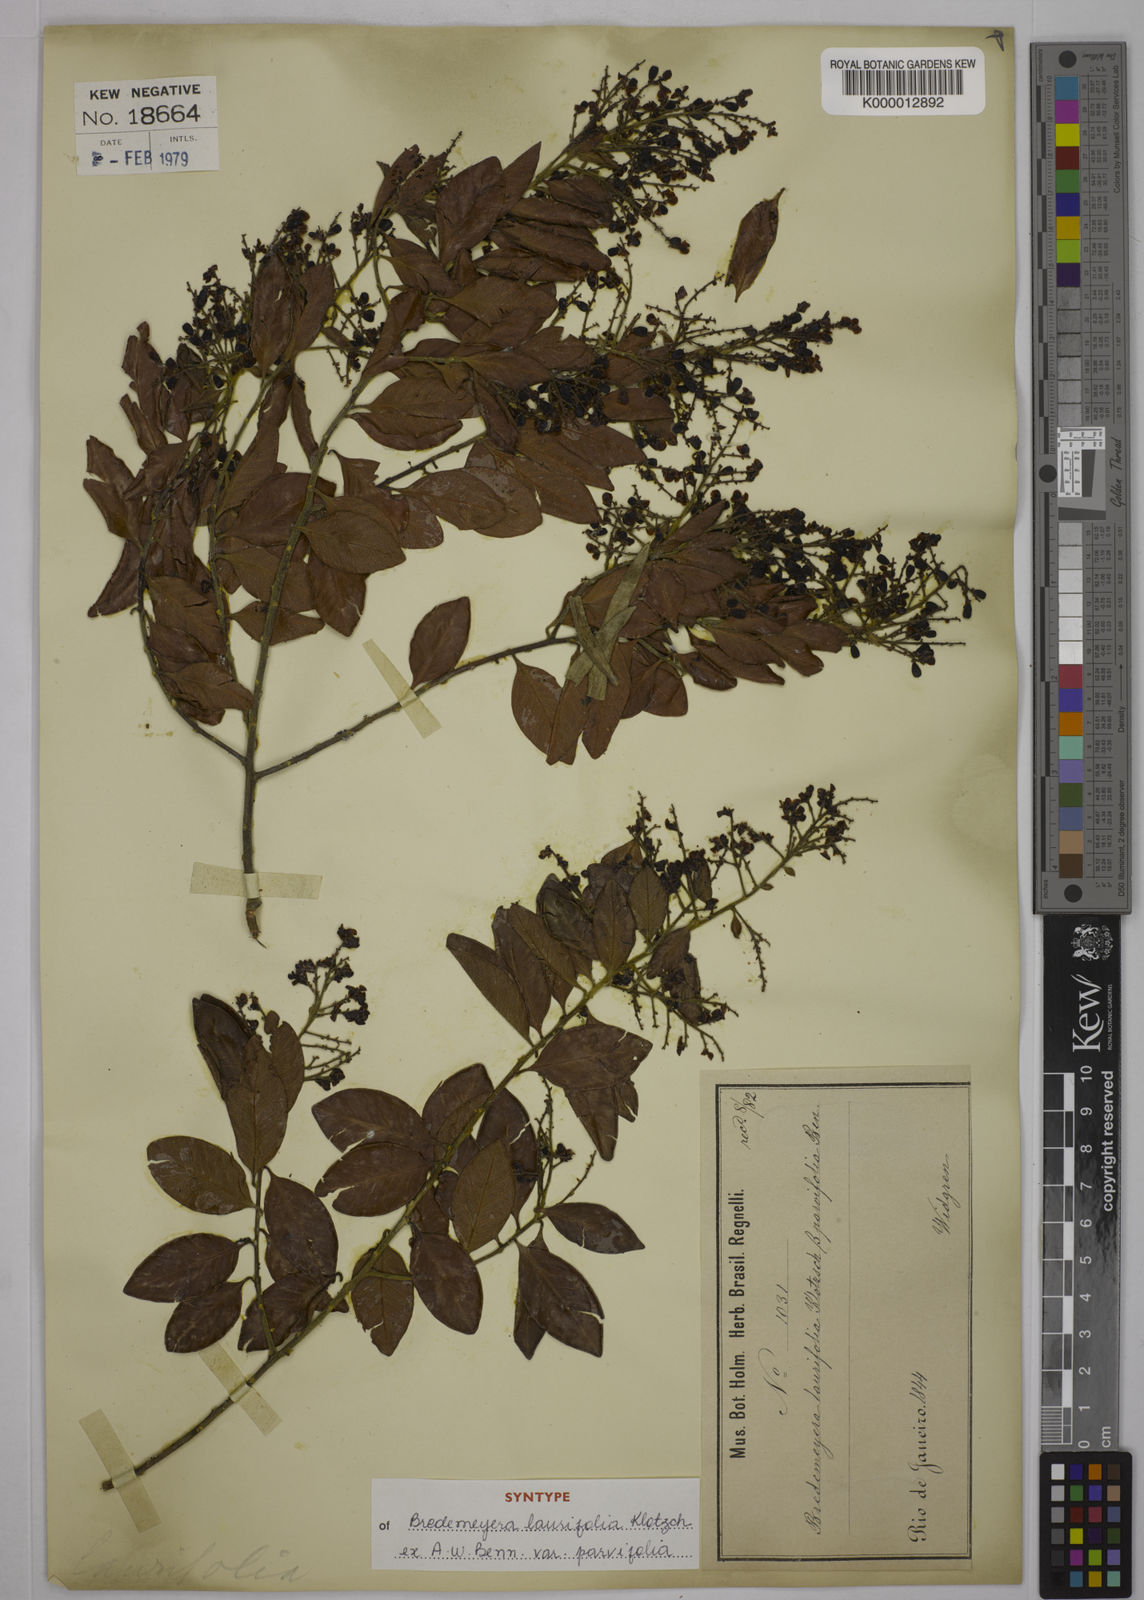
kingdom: Plantae
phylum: Tracheophyta
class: Magnoliopsida
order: Fabales
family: Polygalaceae
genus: Bredemeyera
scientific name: Bredemeyera laurifolia
